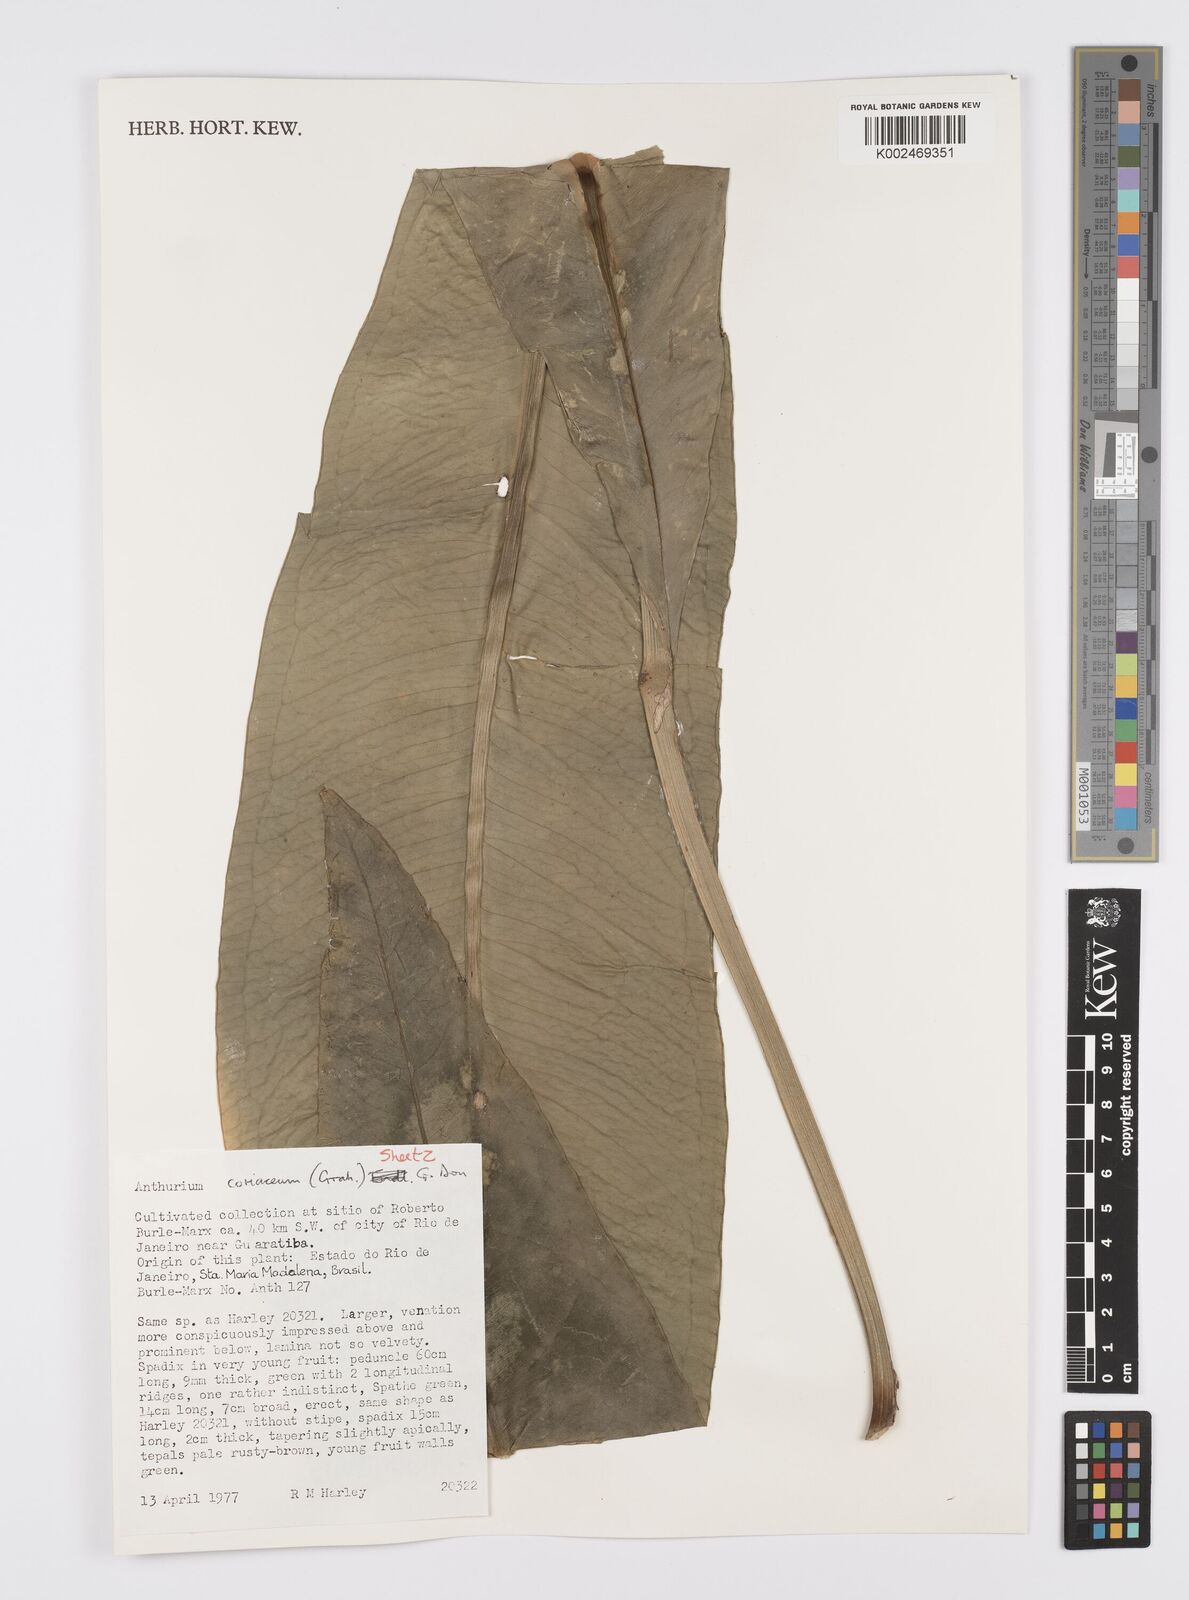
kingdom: Plantae
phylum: Tracheophyta
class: Liliopsida
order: Alismatales
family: Araceae
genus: Anthurium
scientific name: Anthurium coriaceum
